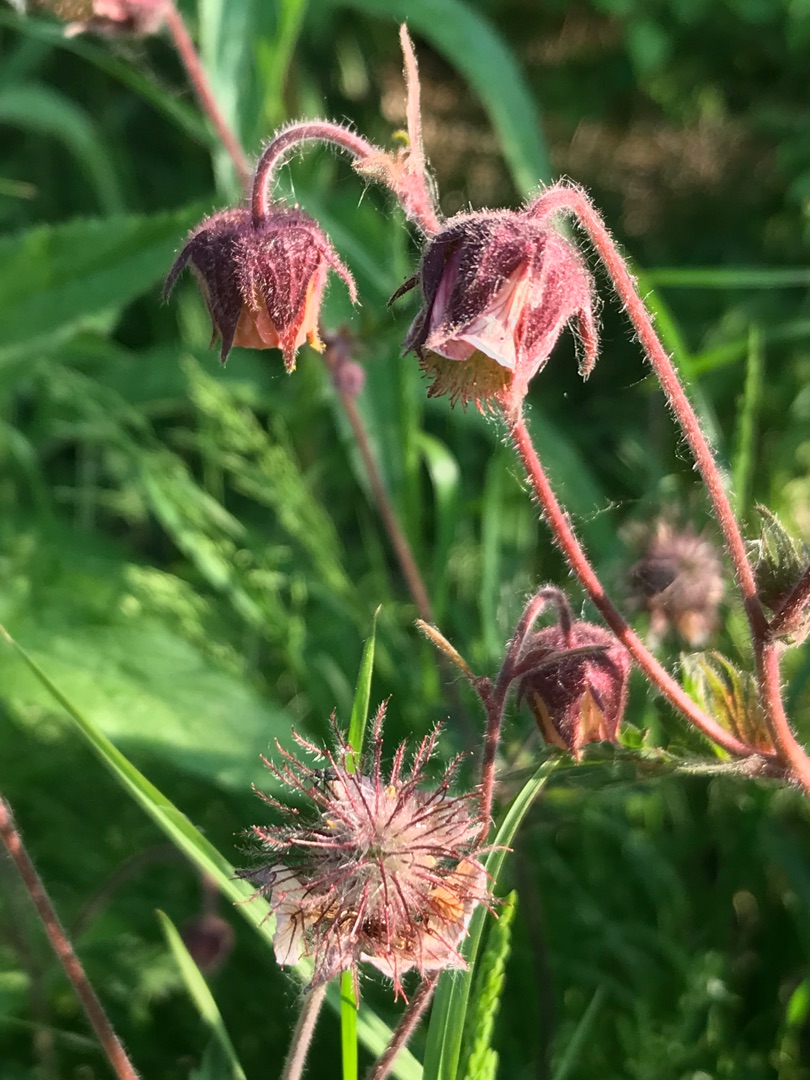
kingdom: Plantae
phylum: Tracheophyta
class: Magnoliopsida
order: Rosales
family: Rosaceae
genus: Geum
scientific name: Geum rivale
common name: Eng-nellikerod
